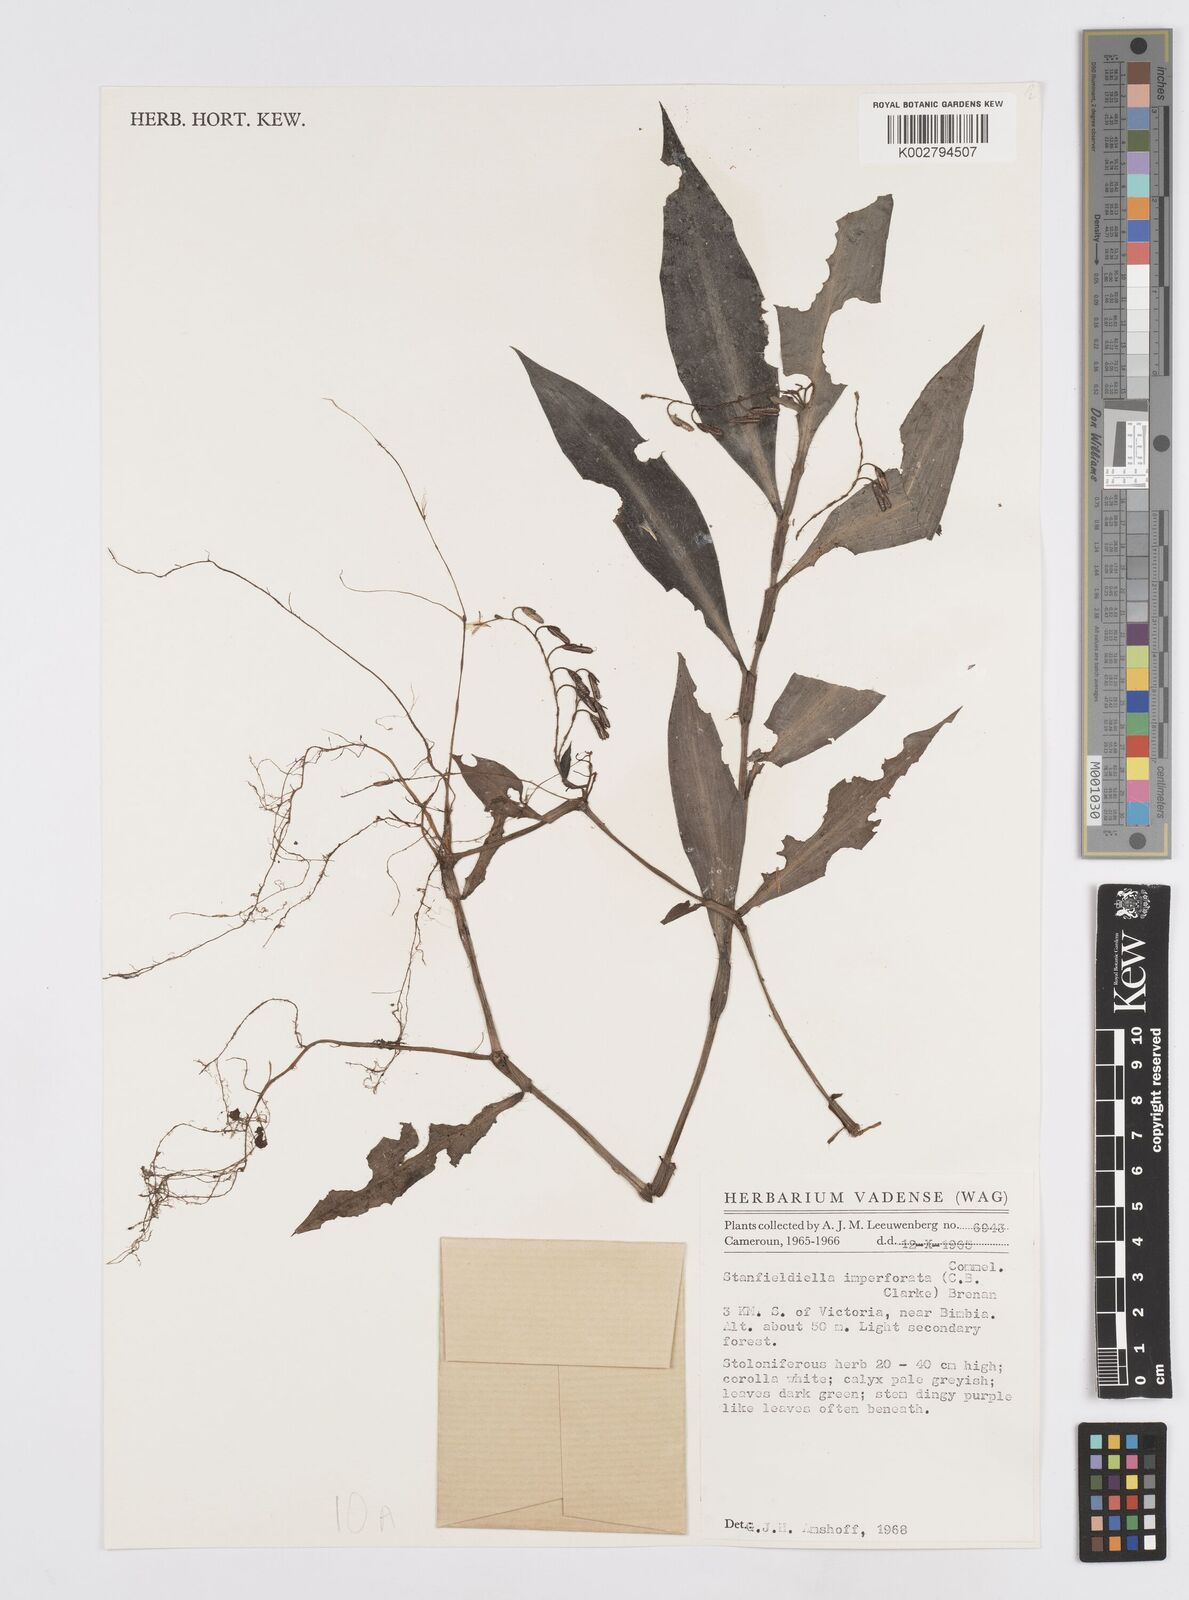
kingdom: Plantae
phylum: Tracheophyta
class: Liliopsida
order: Commelinales
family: Commelinaceae
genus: Stanfieldiella
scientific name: Stanfieldiella imperforata
